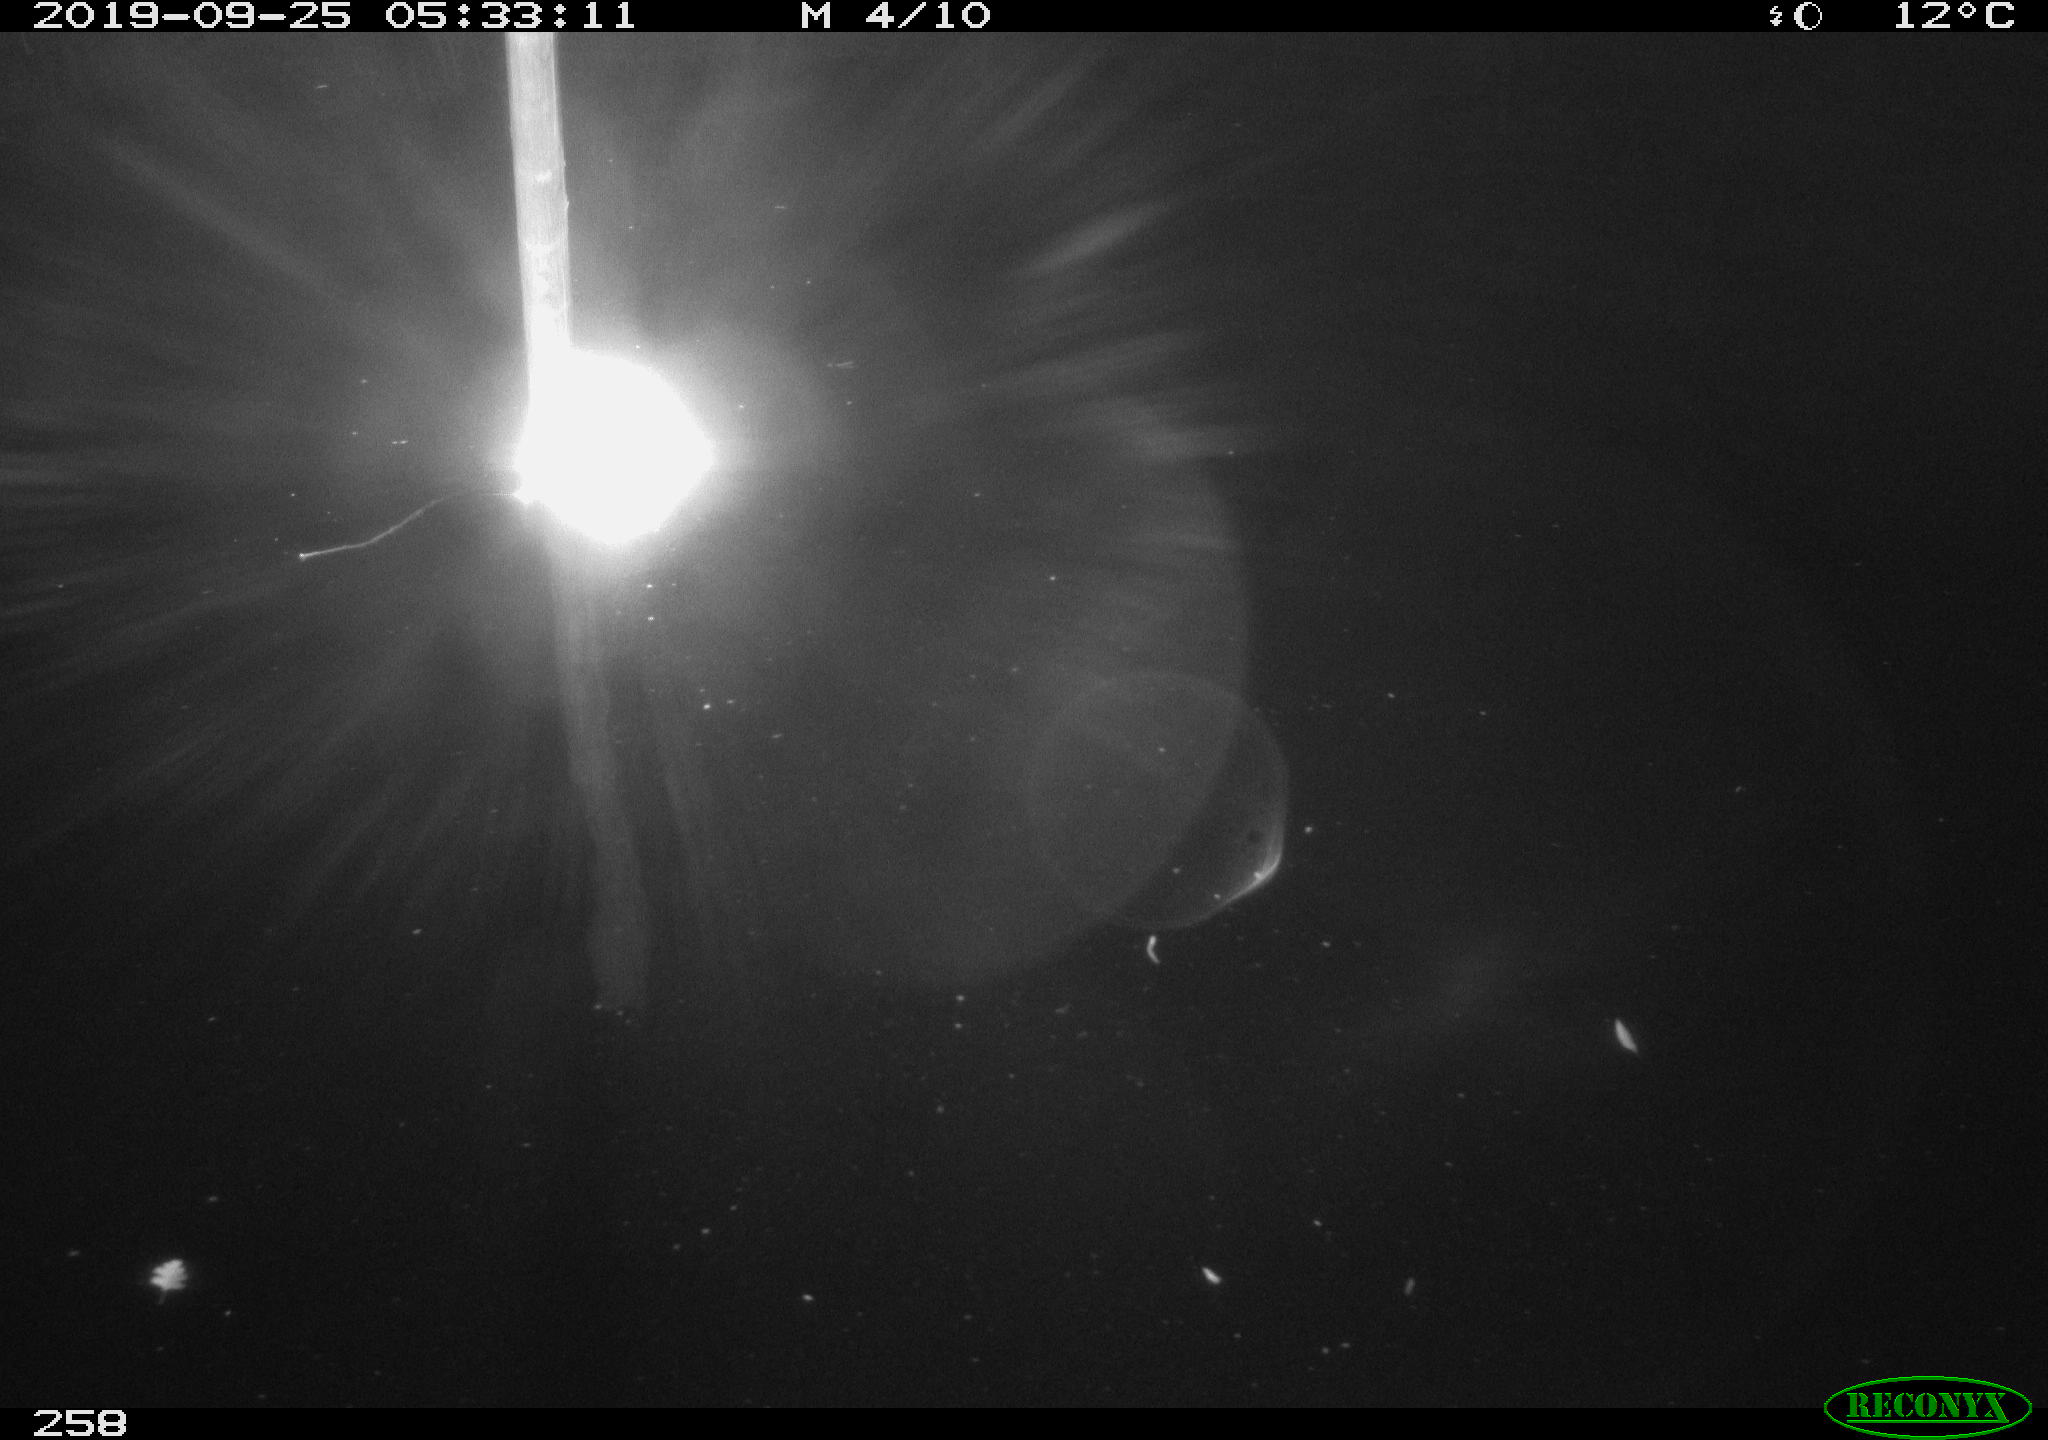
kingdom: Animalia
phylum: Chordata
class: Aves
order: Anseriformes
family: Anatidae
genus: Anas
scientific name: Anas platyrhynchos
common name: Mallard
